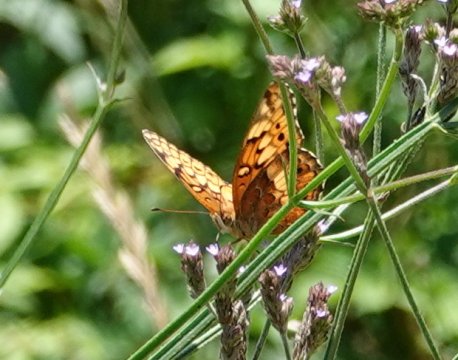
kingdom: Animalia
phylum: Arthropoda
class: Insecta
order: Lepidoptera
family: Nymphalidae
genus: Euptoieta
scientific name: Euptoieta claudia
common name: Variegated Fritillary
